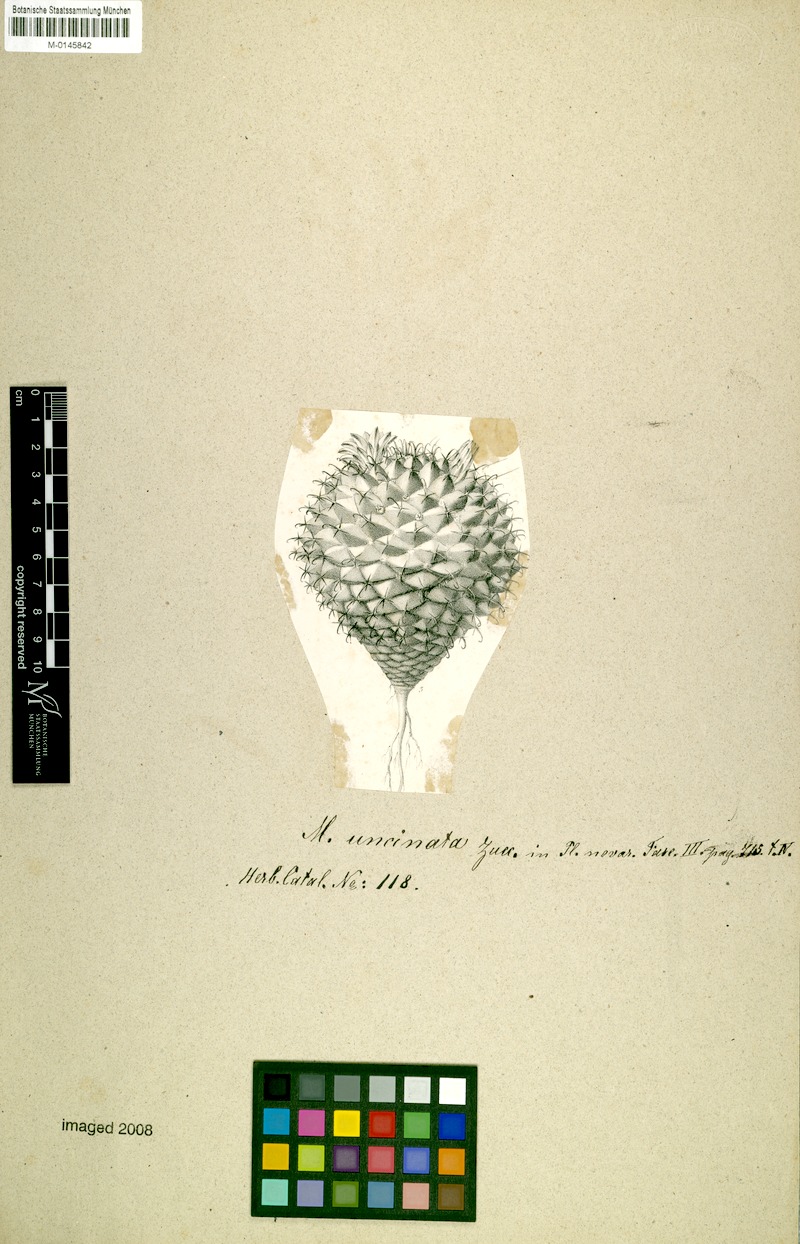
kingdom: Plantae
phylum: Tracheophyta
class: Magnoliopsida
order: Caryophyllales
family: Cactaceae
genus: Mammillaria
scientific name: Mammillaria uncinata
